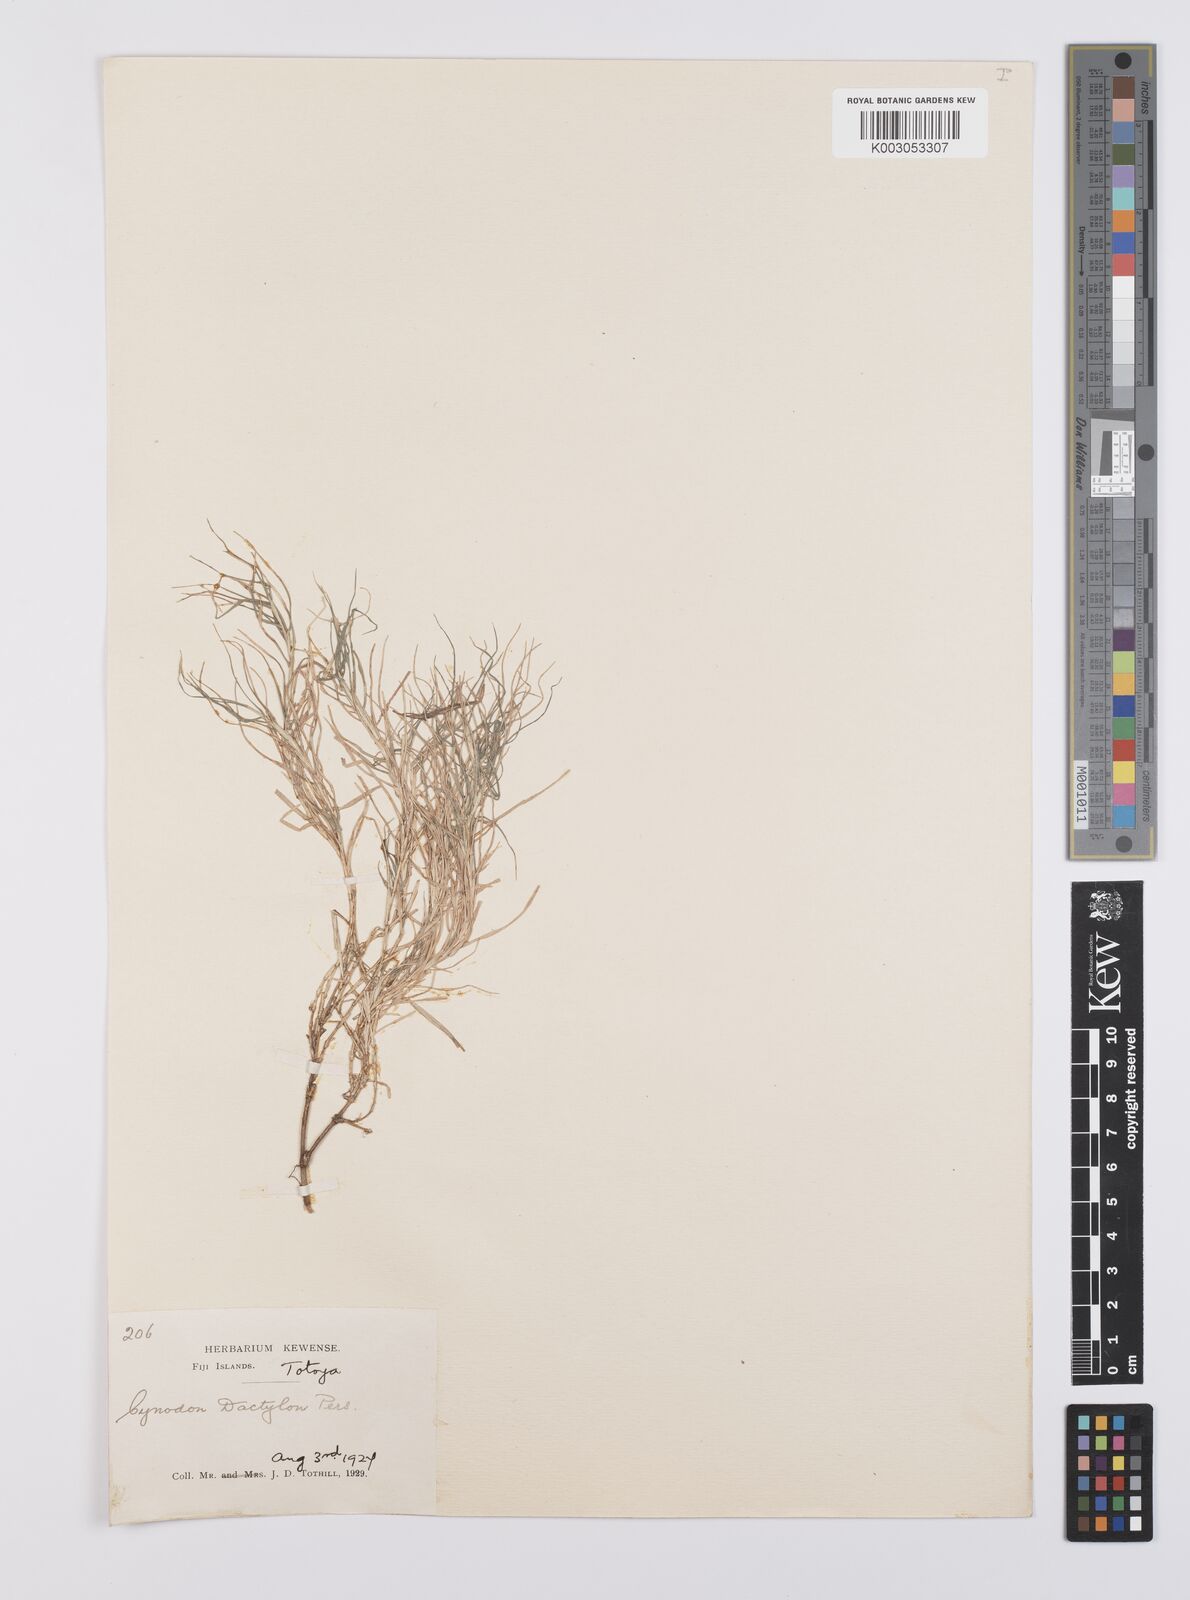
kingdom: Plantae
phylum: Tracheophyta
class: Liliopsida
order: Poales
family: Poaceae
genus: Cynodon
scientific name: Cynodon dactylon
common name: Bermuda grass
